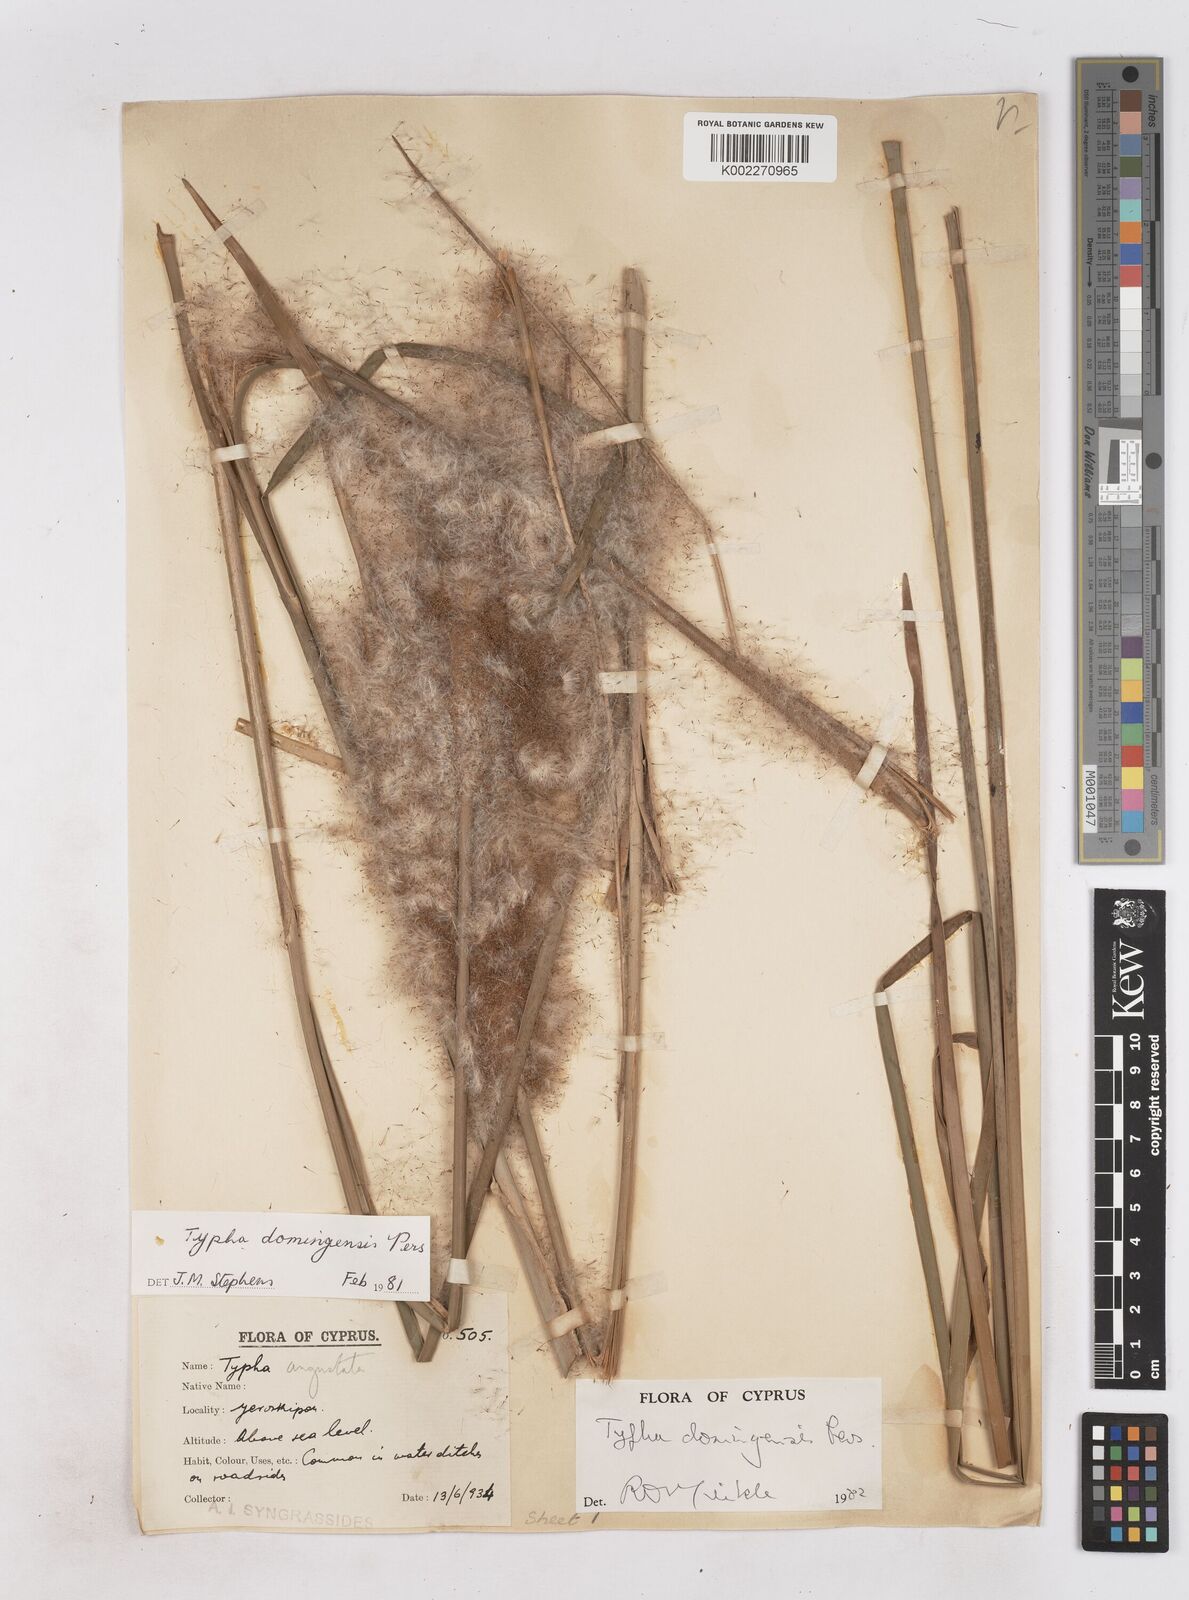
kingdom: Plantae
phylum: Tracheophyta
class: Liliopsida
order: Poales
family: Typhaceae
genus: Typha
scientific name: Typha domingensis
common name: Southern cattail
